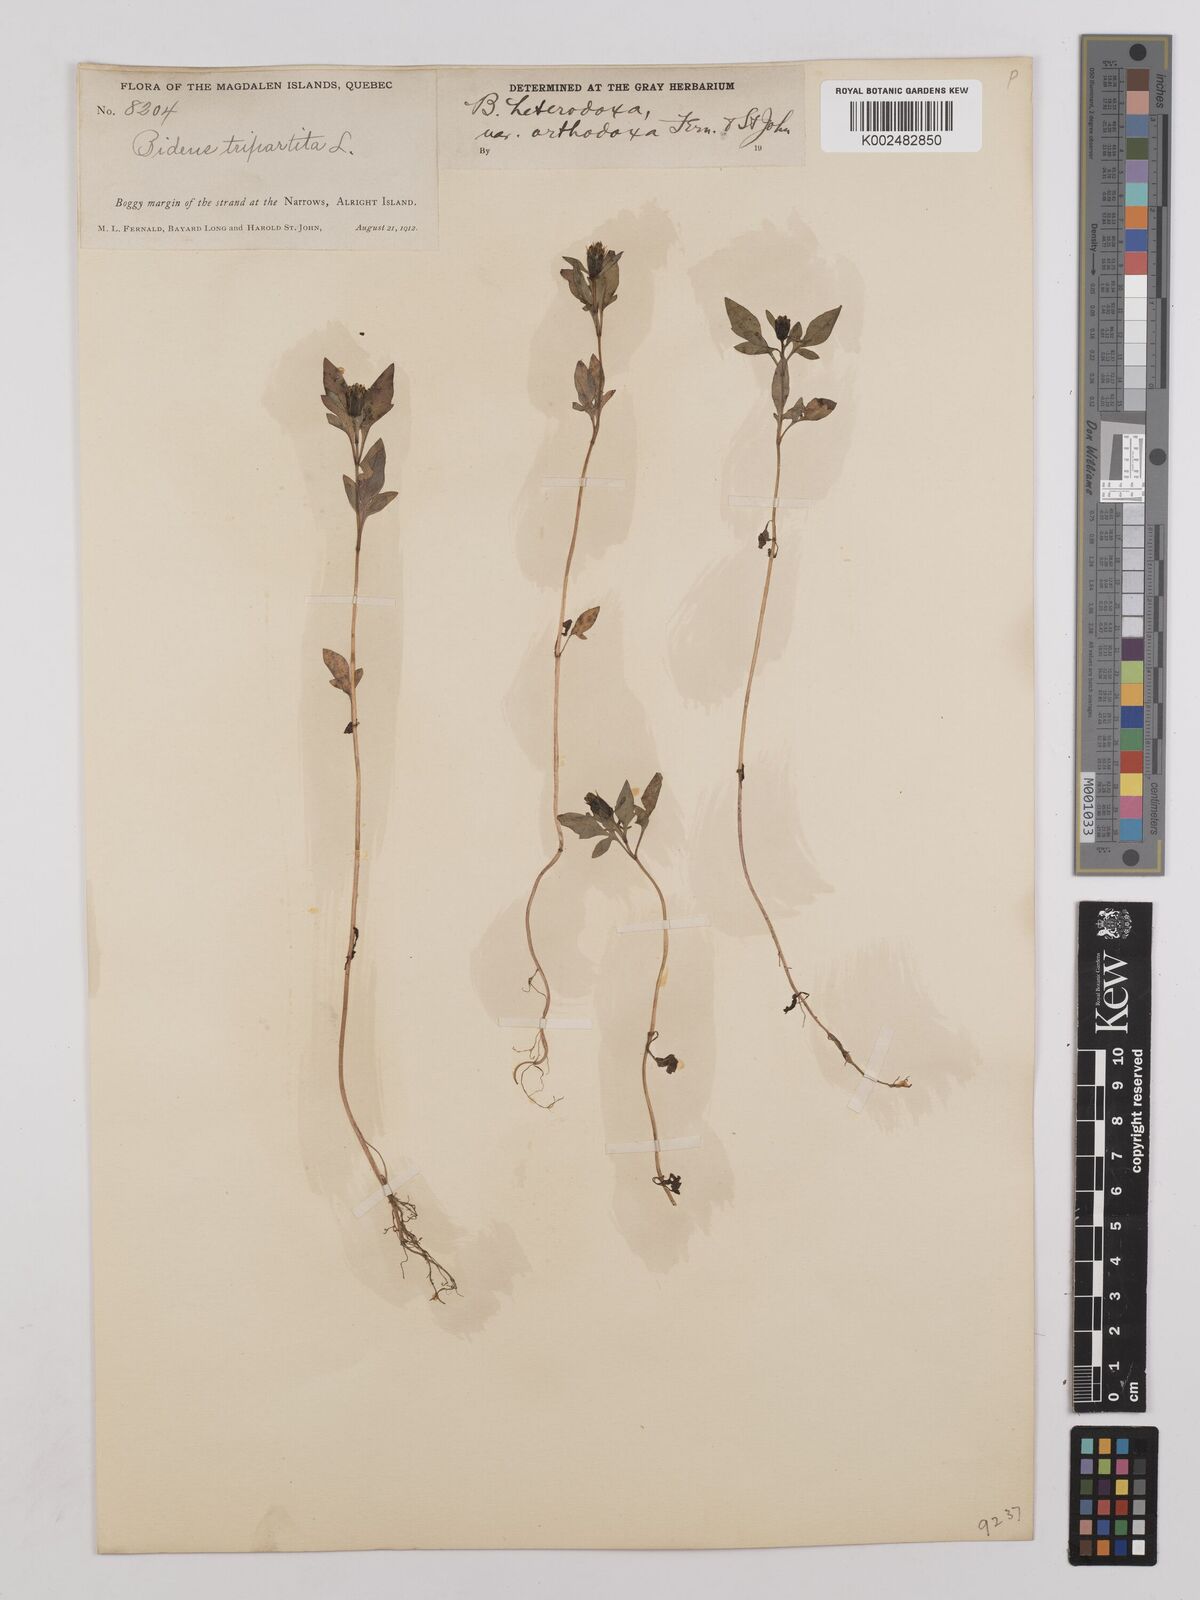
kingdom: Plantae
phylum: Tracheophyta
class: Magnoliopsida
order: Asterales
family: Asteraceae
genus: Bidens
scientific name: Bidens heterodoxa
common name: Connecticut beggarticks
